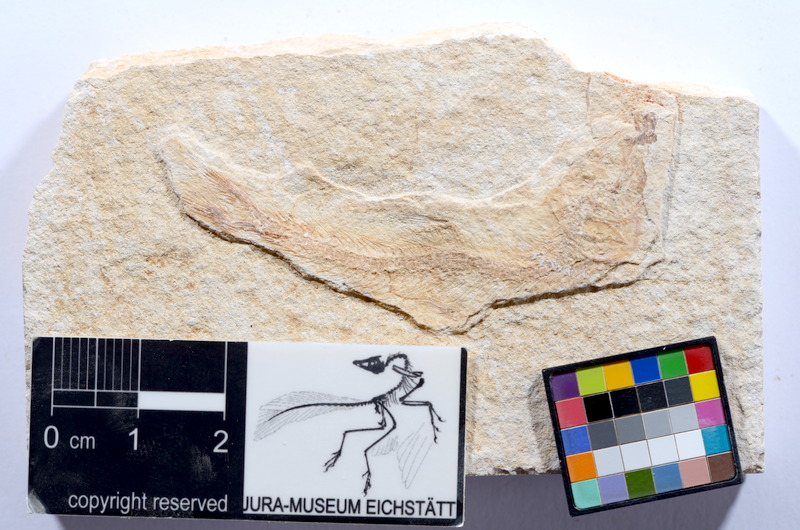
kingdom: Animalia
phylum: Chordata
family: Ascalaboidae
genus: Tharsis
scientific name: Tharsis dubius
